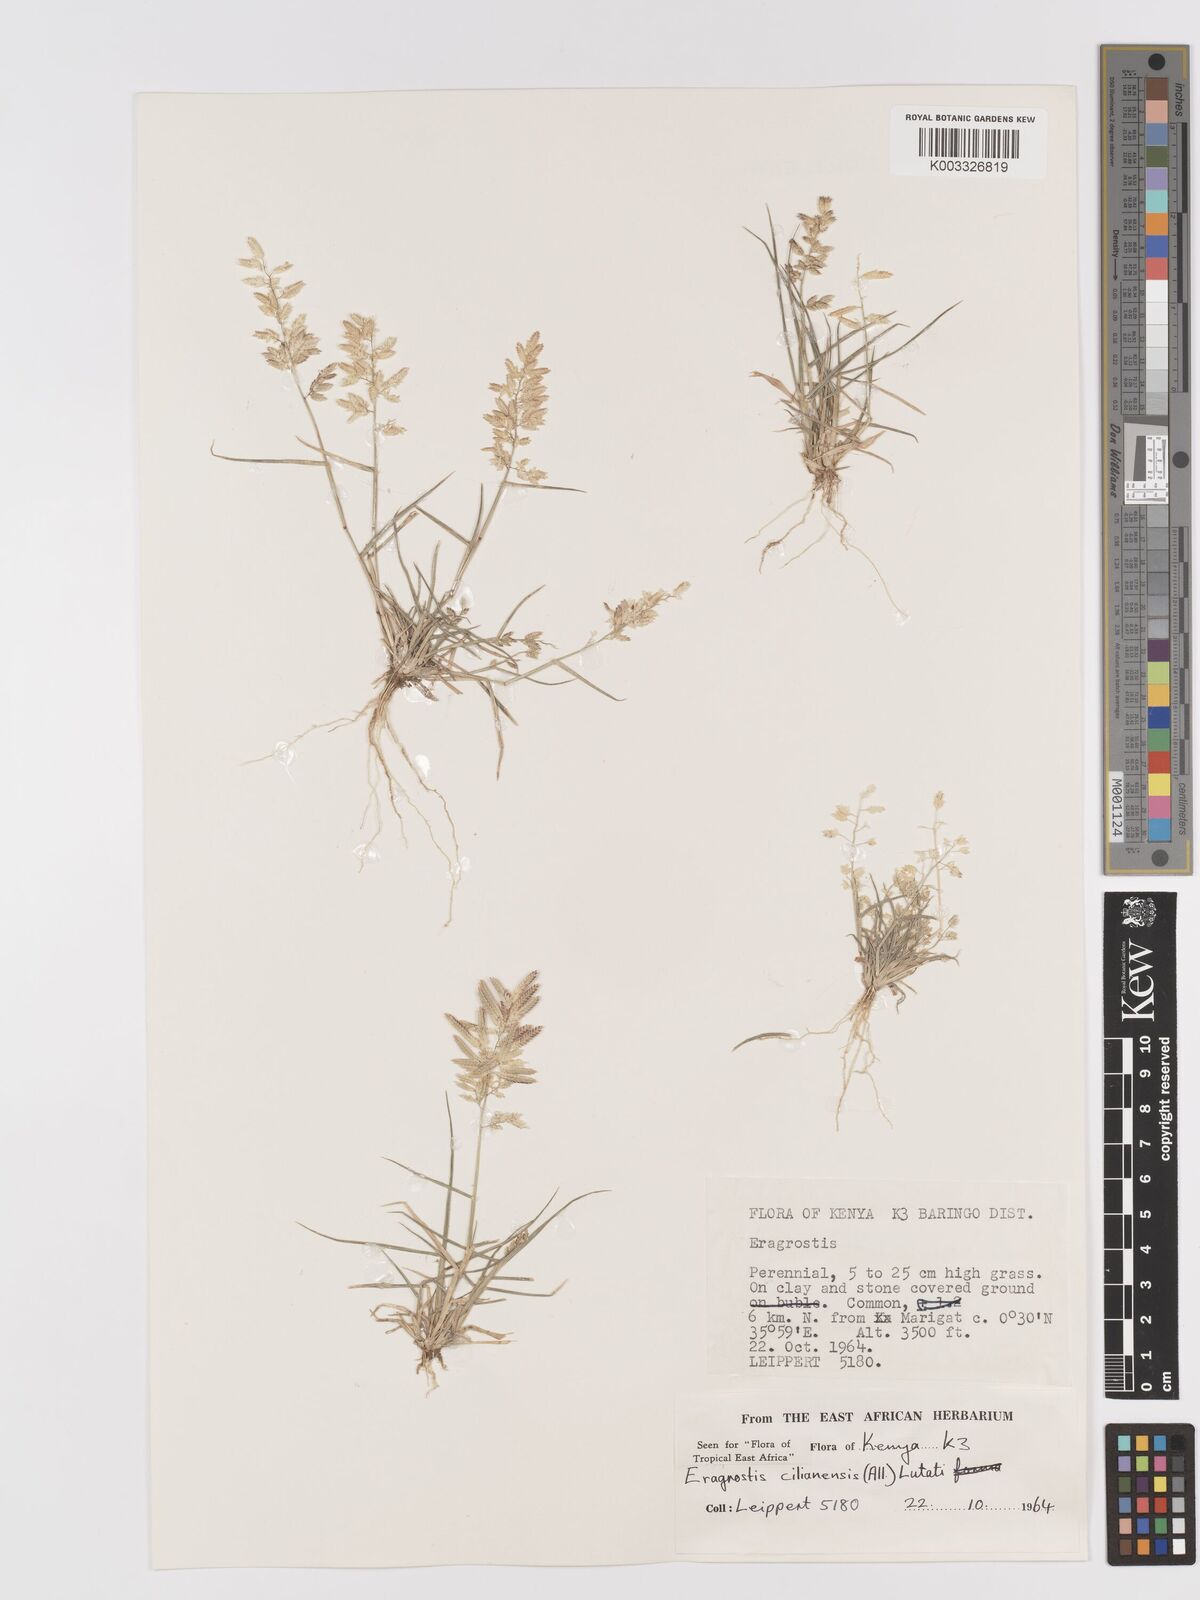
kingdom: Plantae
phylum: Tracheophyta
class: Liliopsida
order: Poales
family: Poaceae
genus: Eragrostis
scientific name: Eragrostis cilianensis
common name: Stinkgrass
